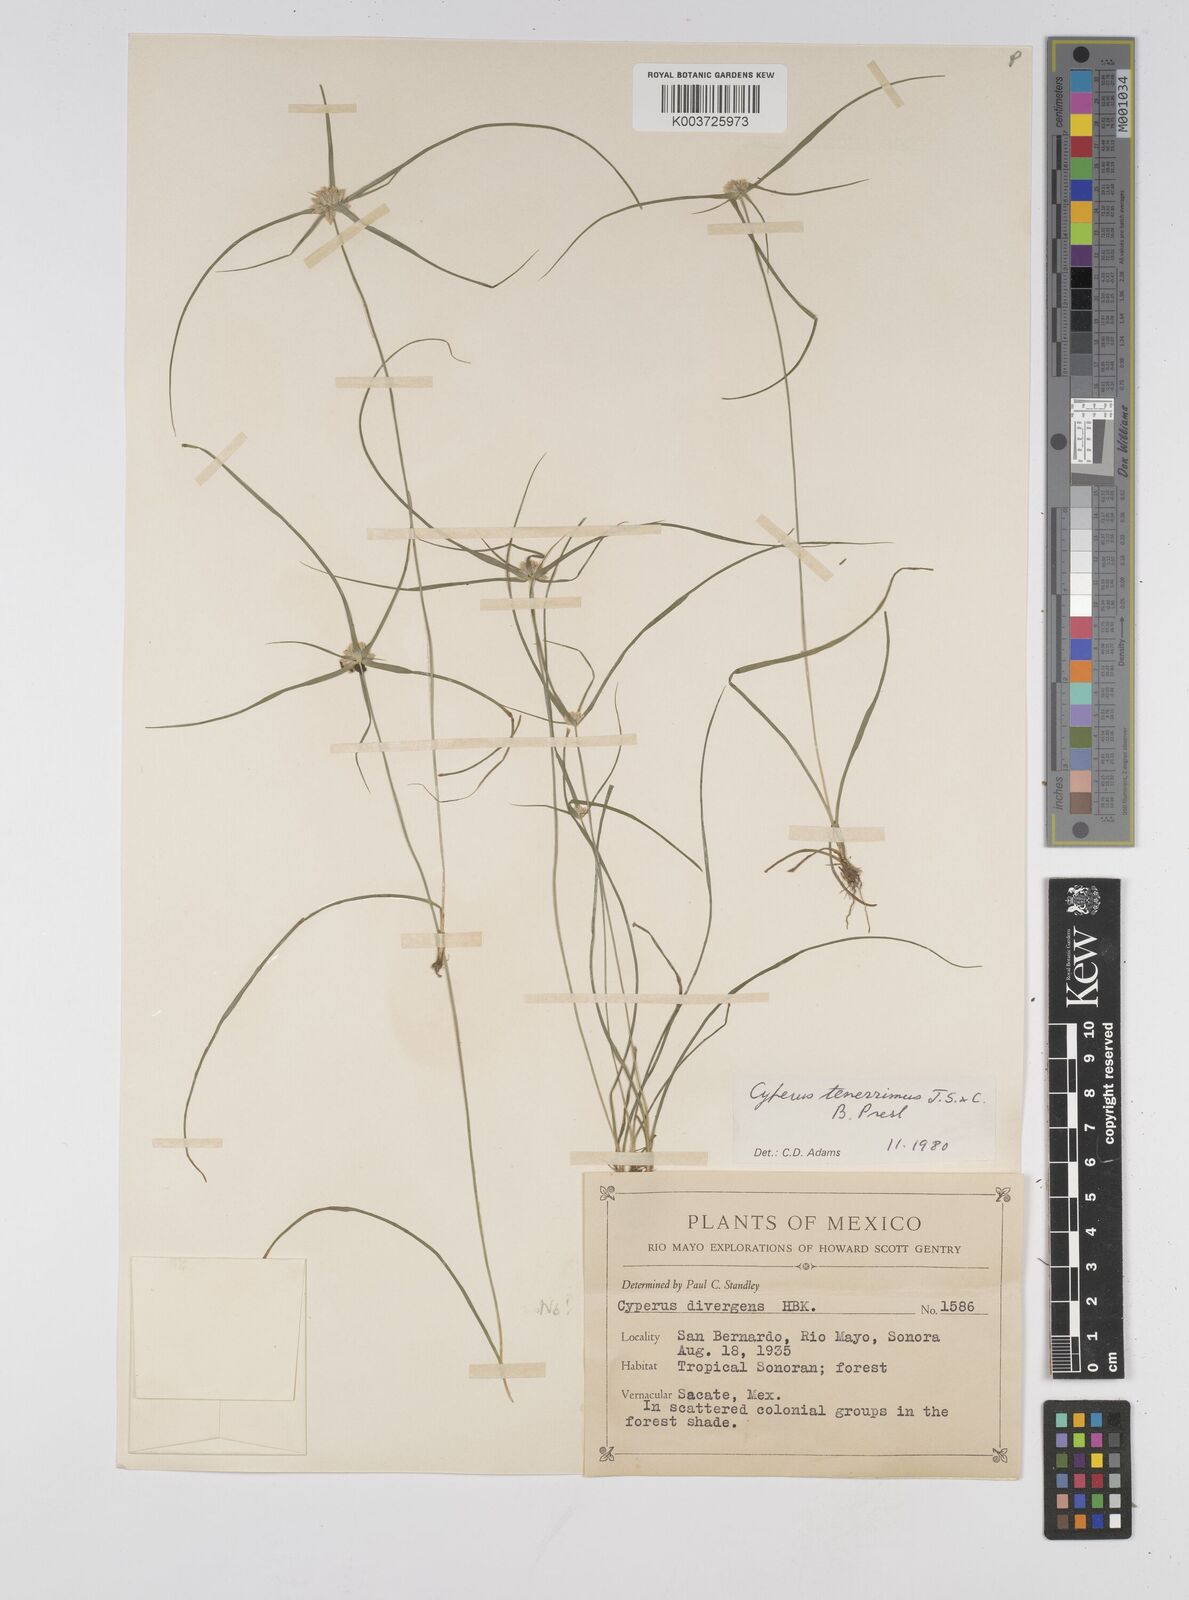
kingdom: Plantae
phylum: Tracheophyta
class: Liliopsida
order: Poales
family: Cyperaceae
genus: Cyperus
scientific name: Cyperus tenerrimus
